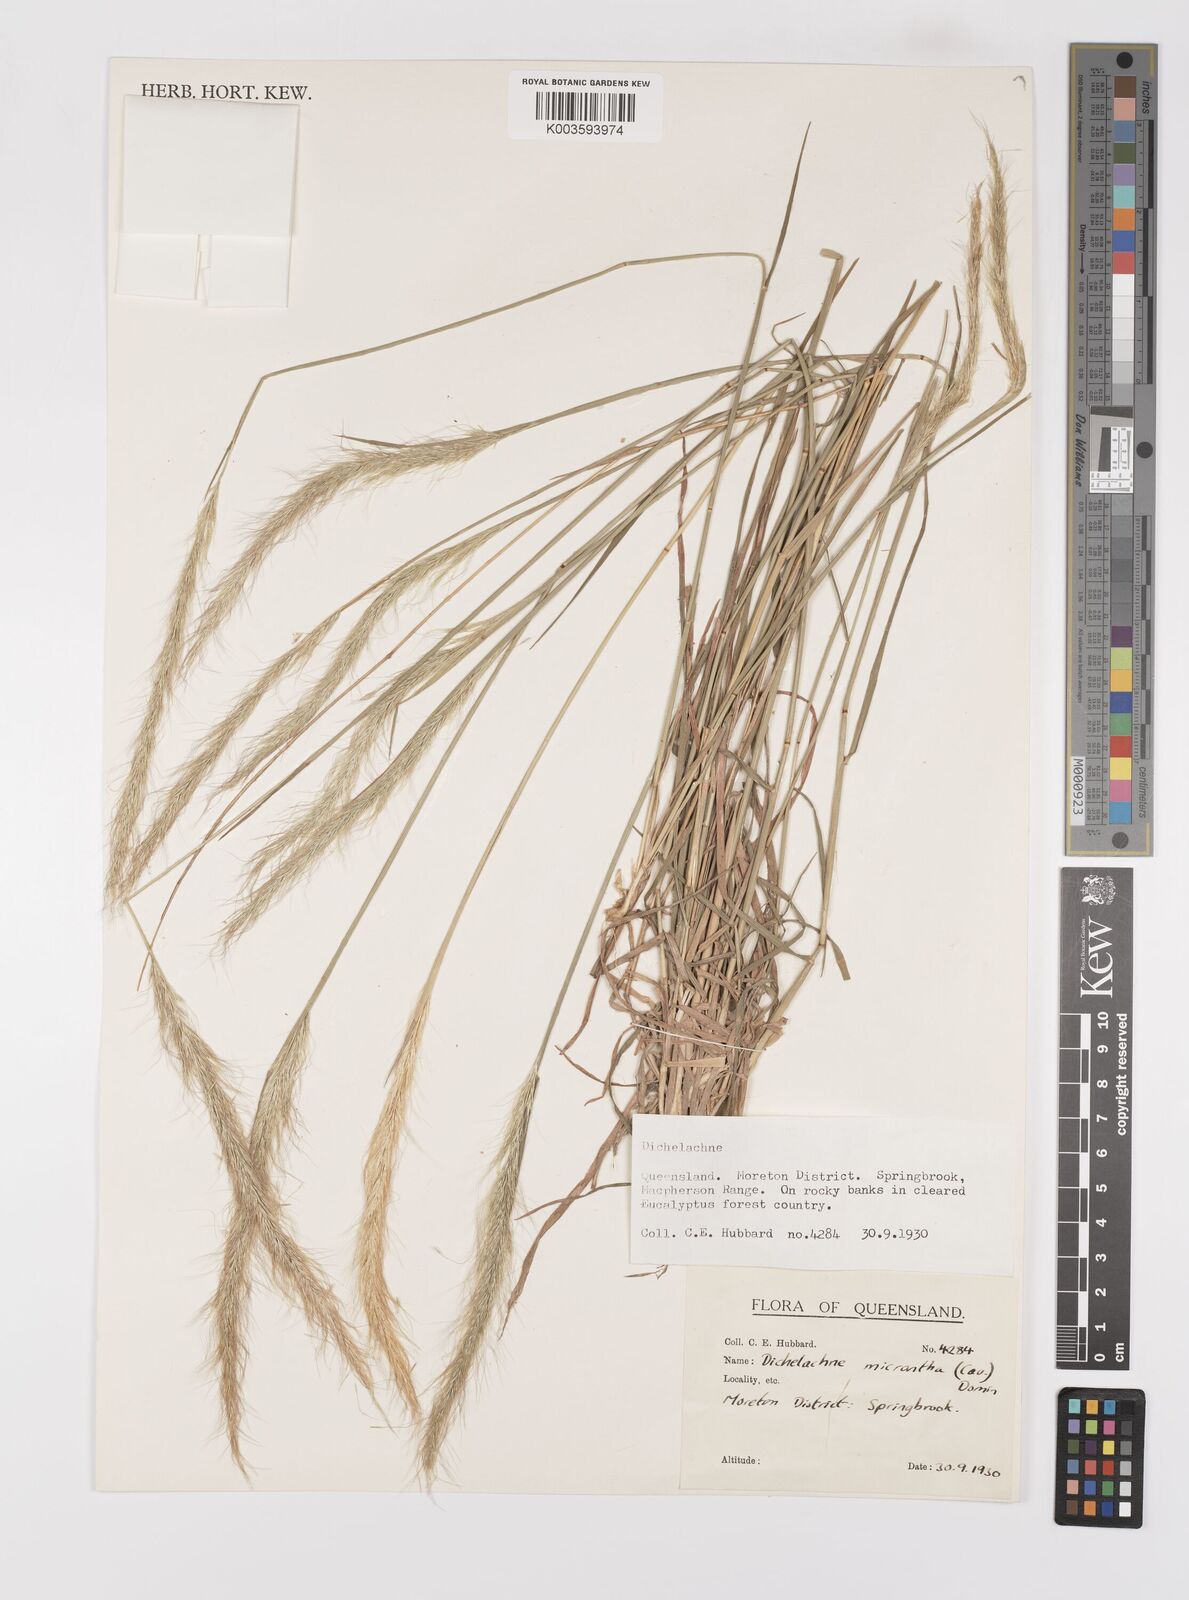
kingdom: Plantae
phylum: Tracheophyta
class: Liliopsida
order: Poales
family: Poaceae
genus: Dichelachne
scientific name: Dichelachne micrantha
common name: Plumegrass
